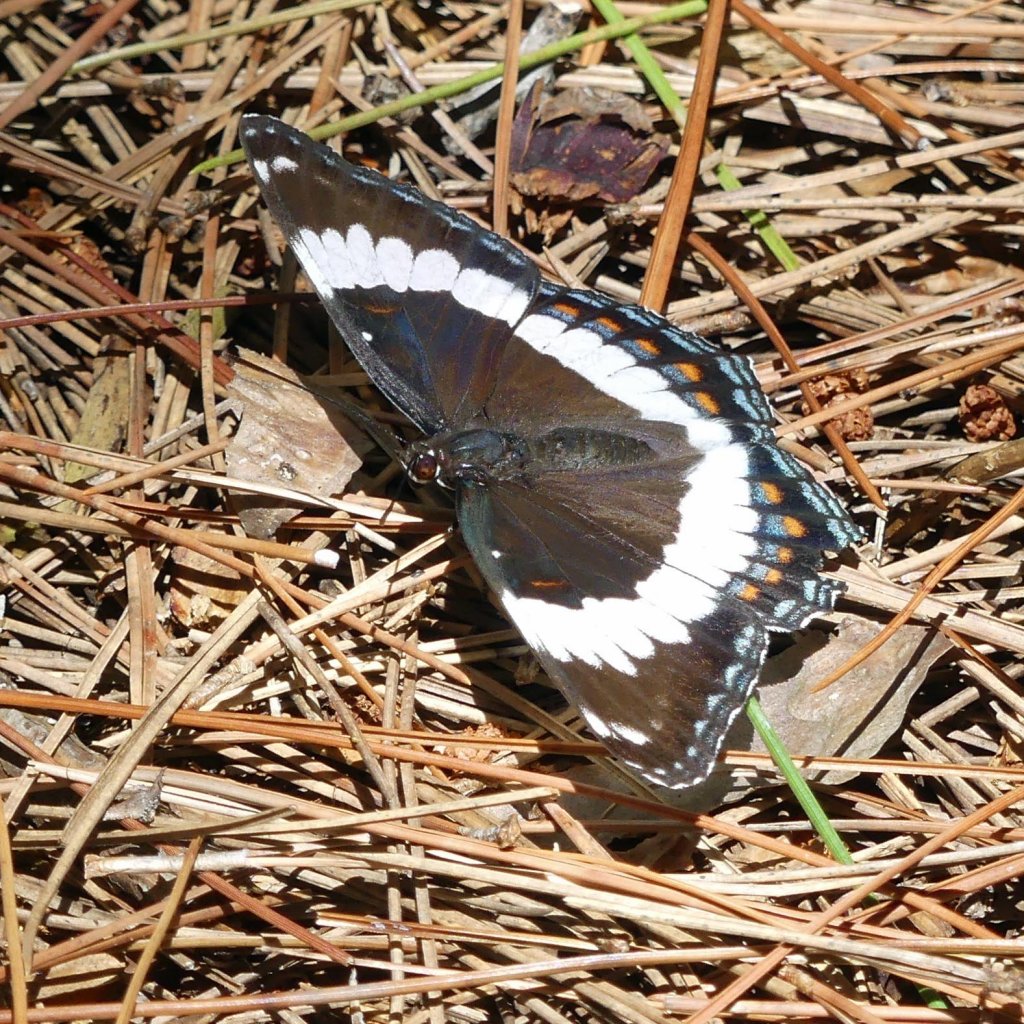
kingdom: Animalia
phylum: Arthropoda
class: Insecta
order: Lepidoptera
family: Nymphalidae
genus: Limenitis
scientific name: Limenitis arthemis
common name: Red-spotted Admiral
